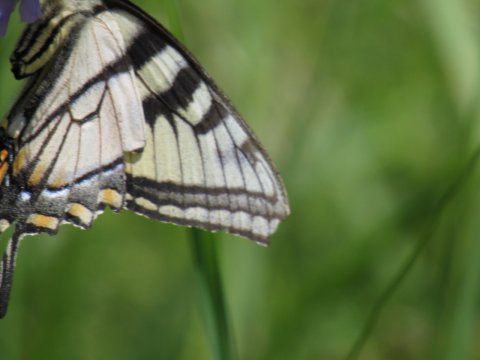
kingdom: Animalia
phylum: Arthropoda
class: Insecta
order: Lepidoptera
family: Papilionidae
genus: Pterourus
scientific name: Pterourus canadensis
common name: Canadian Tiger Swallowtail
